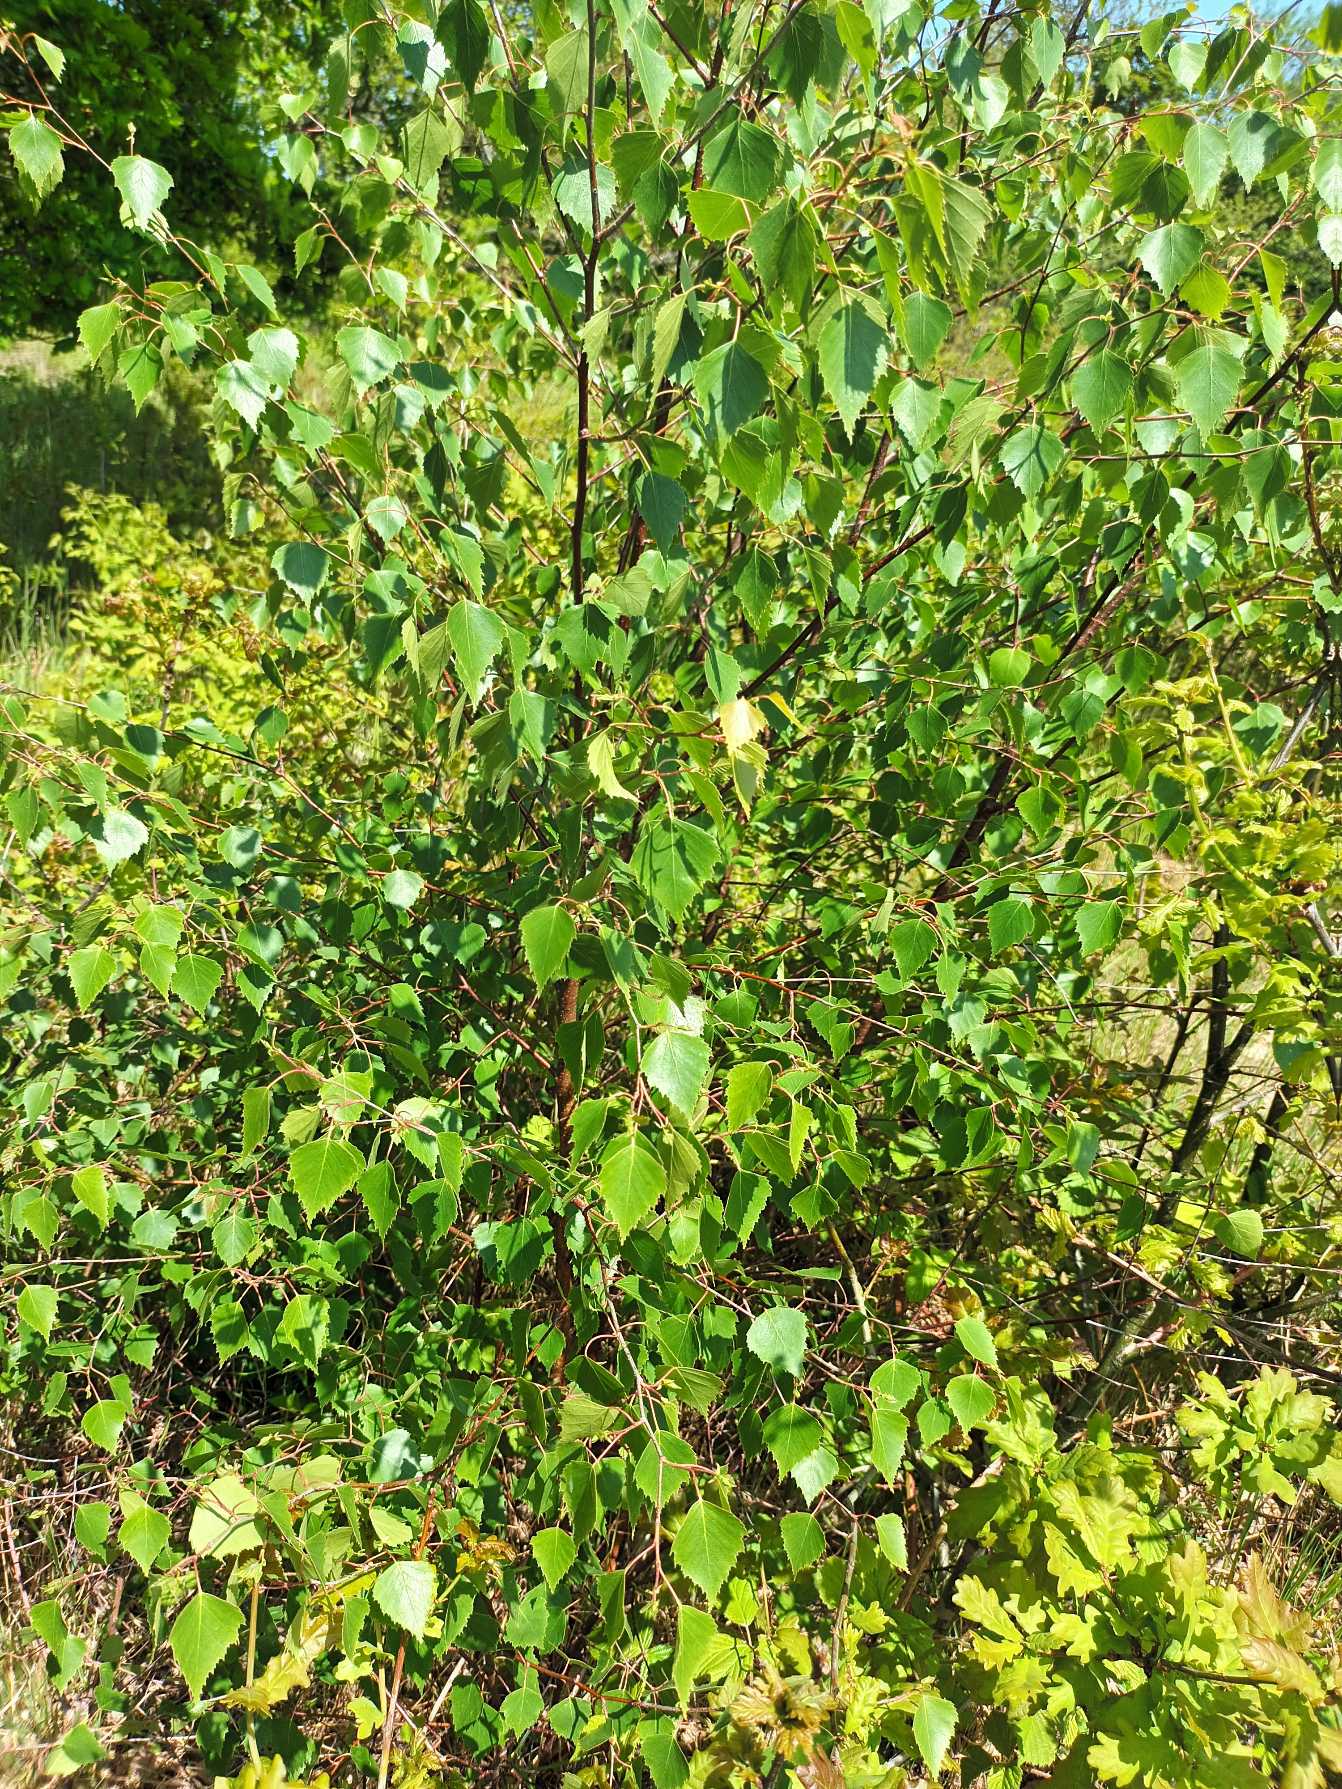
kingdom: Plantae
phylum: Tracheophyta
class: Magnoliopsida
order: Fagales
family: Betulaceae
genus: Betula
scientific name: Betula pendula
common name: Vorte-birk
